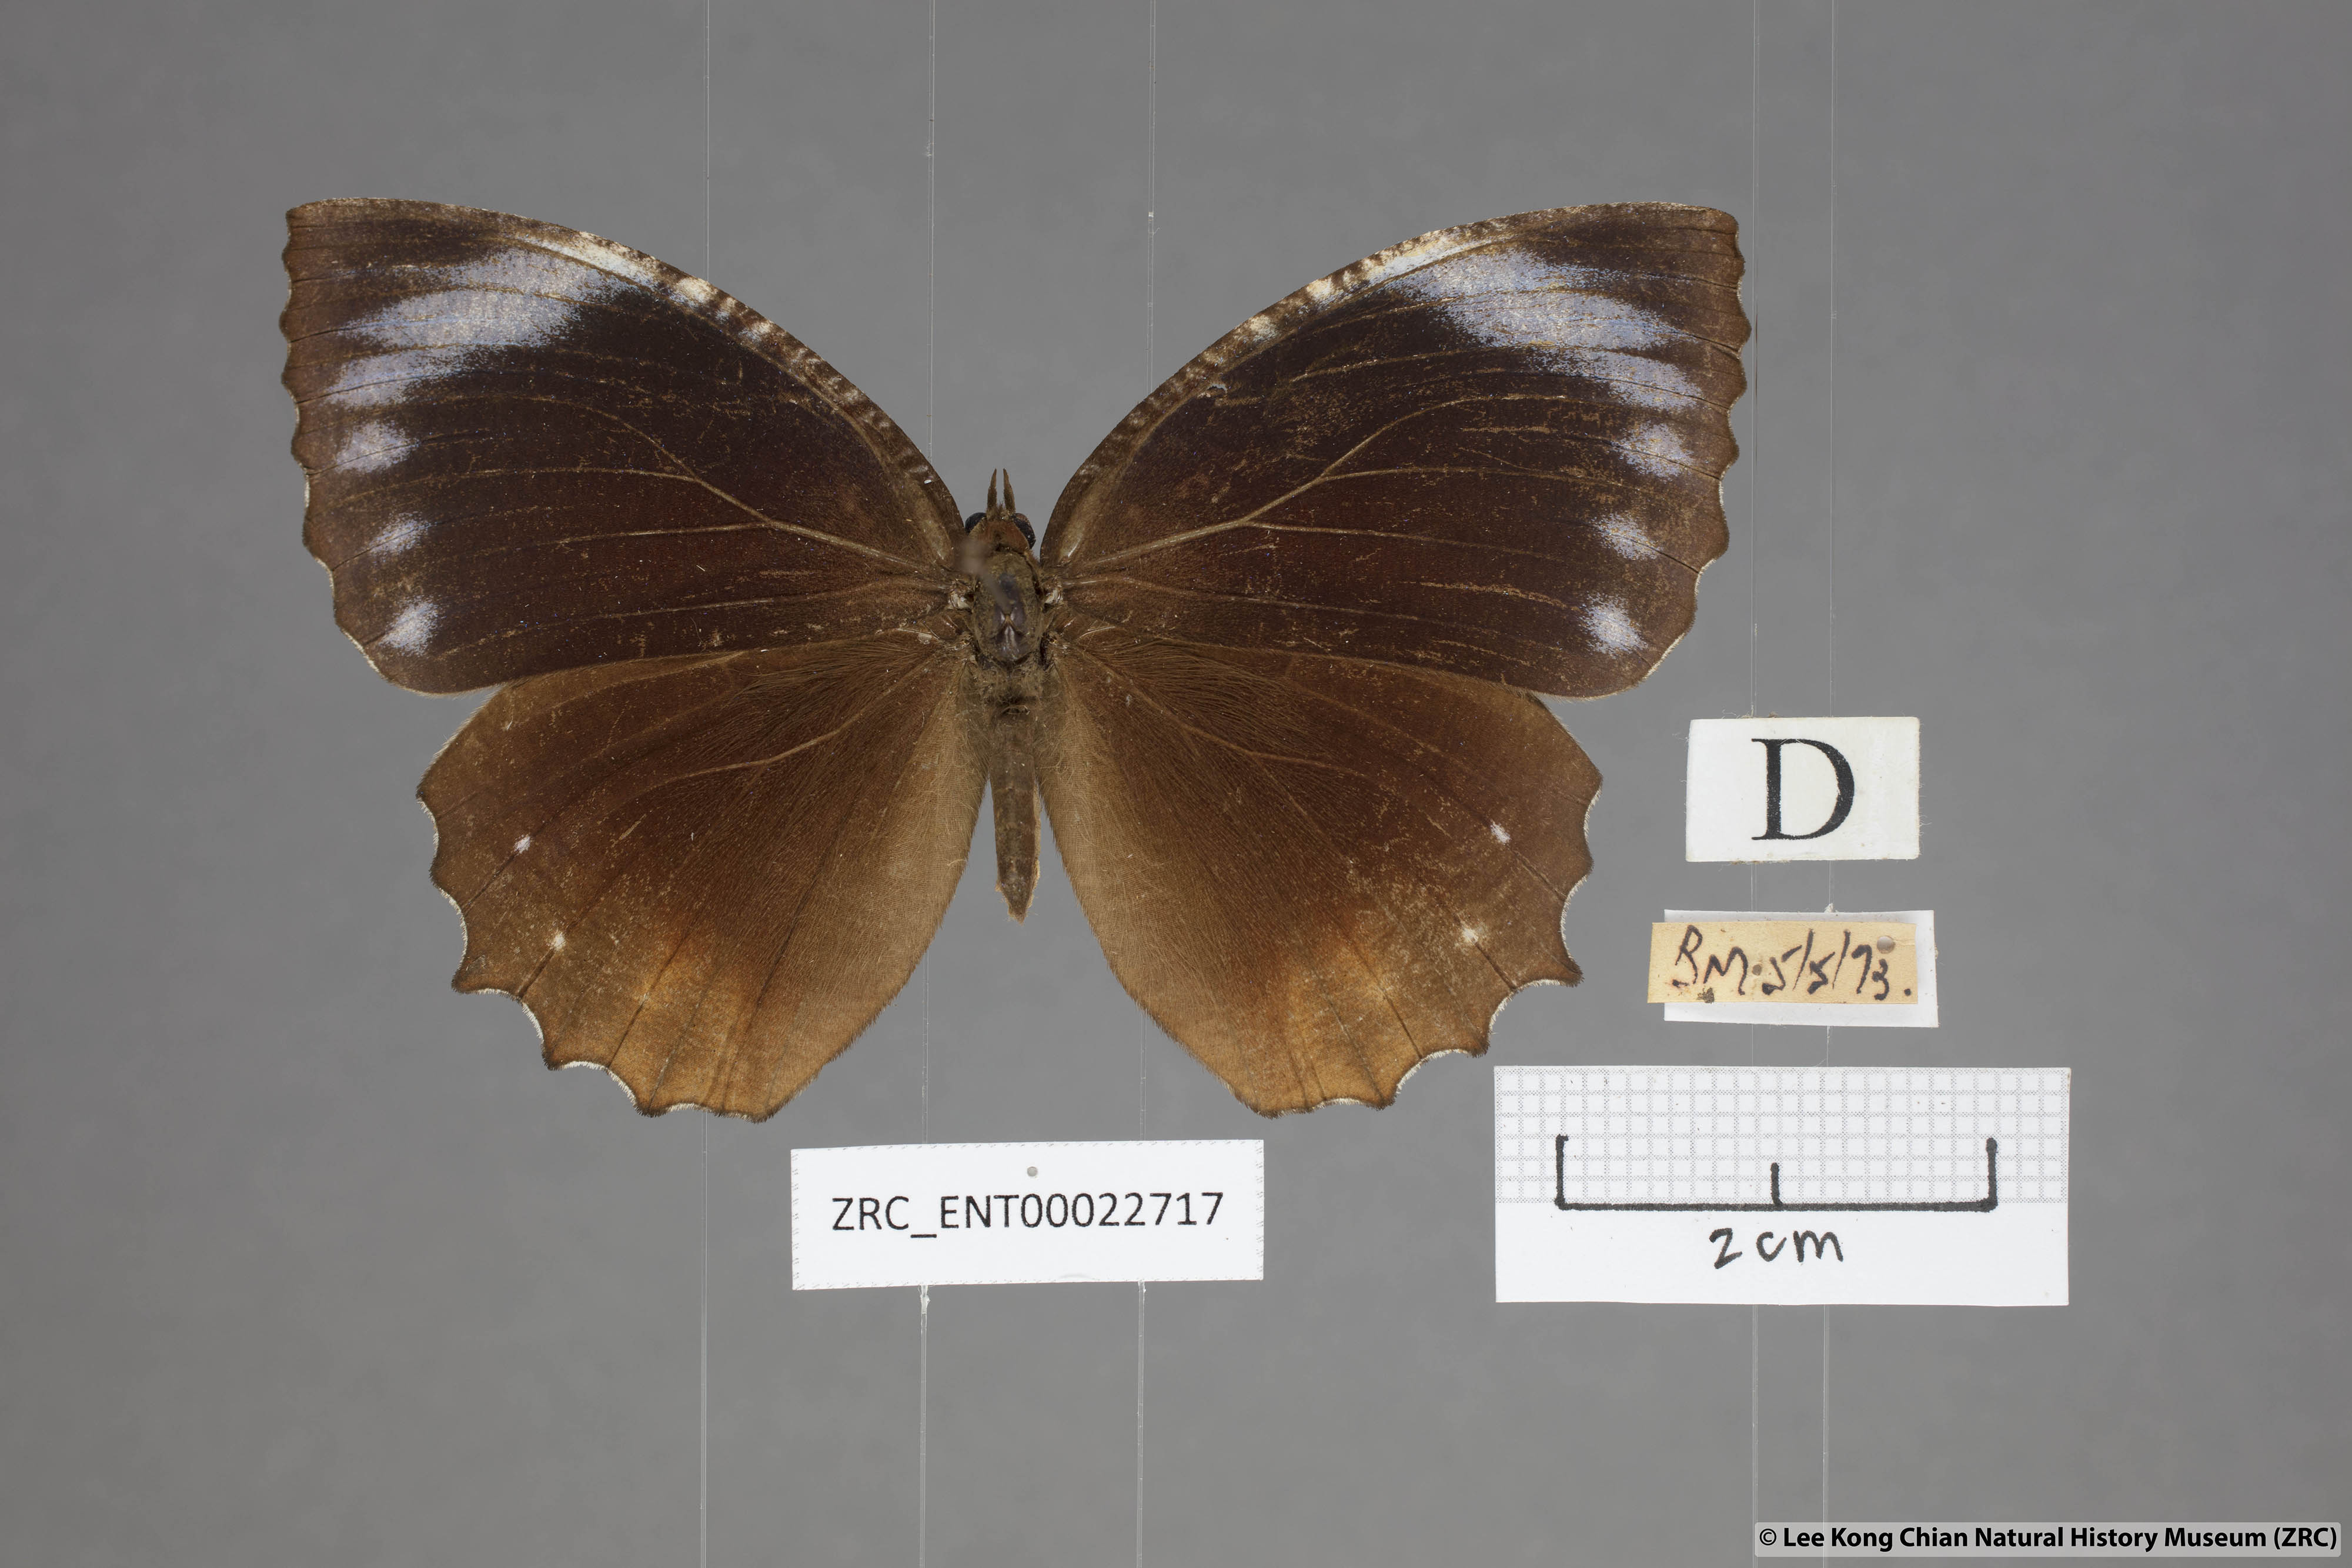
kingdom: Animalia
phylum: Arthropoda
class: Insecta
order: Lepidoptera
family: Nymphalidae
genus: Elymnias
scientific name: Elymnias hypermnestra
